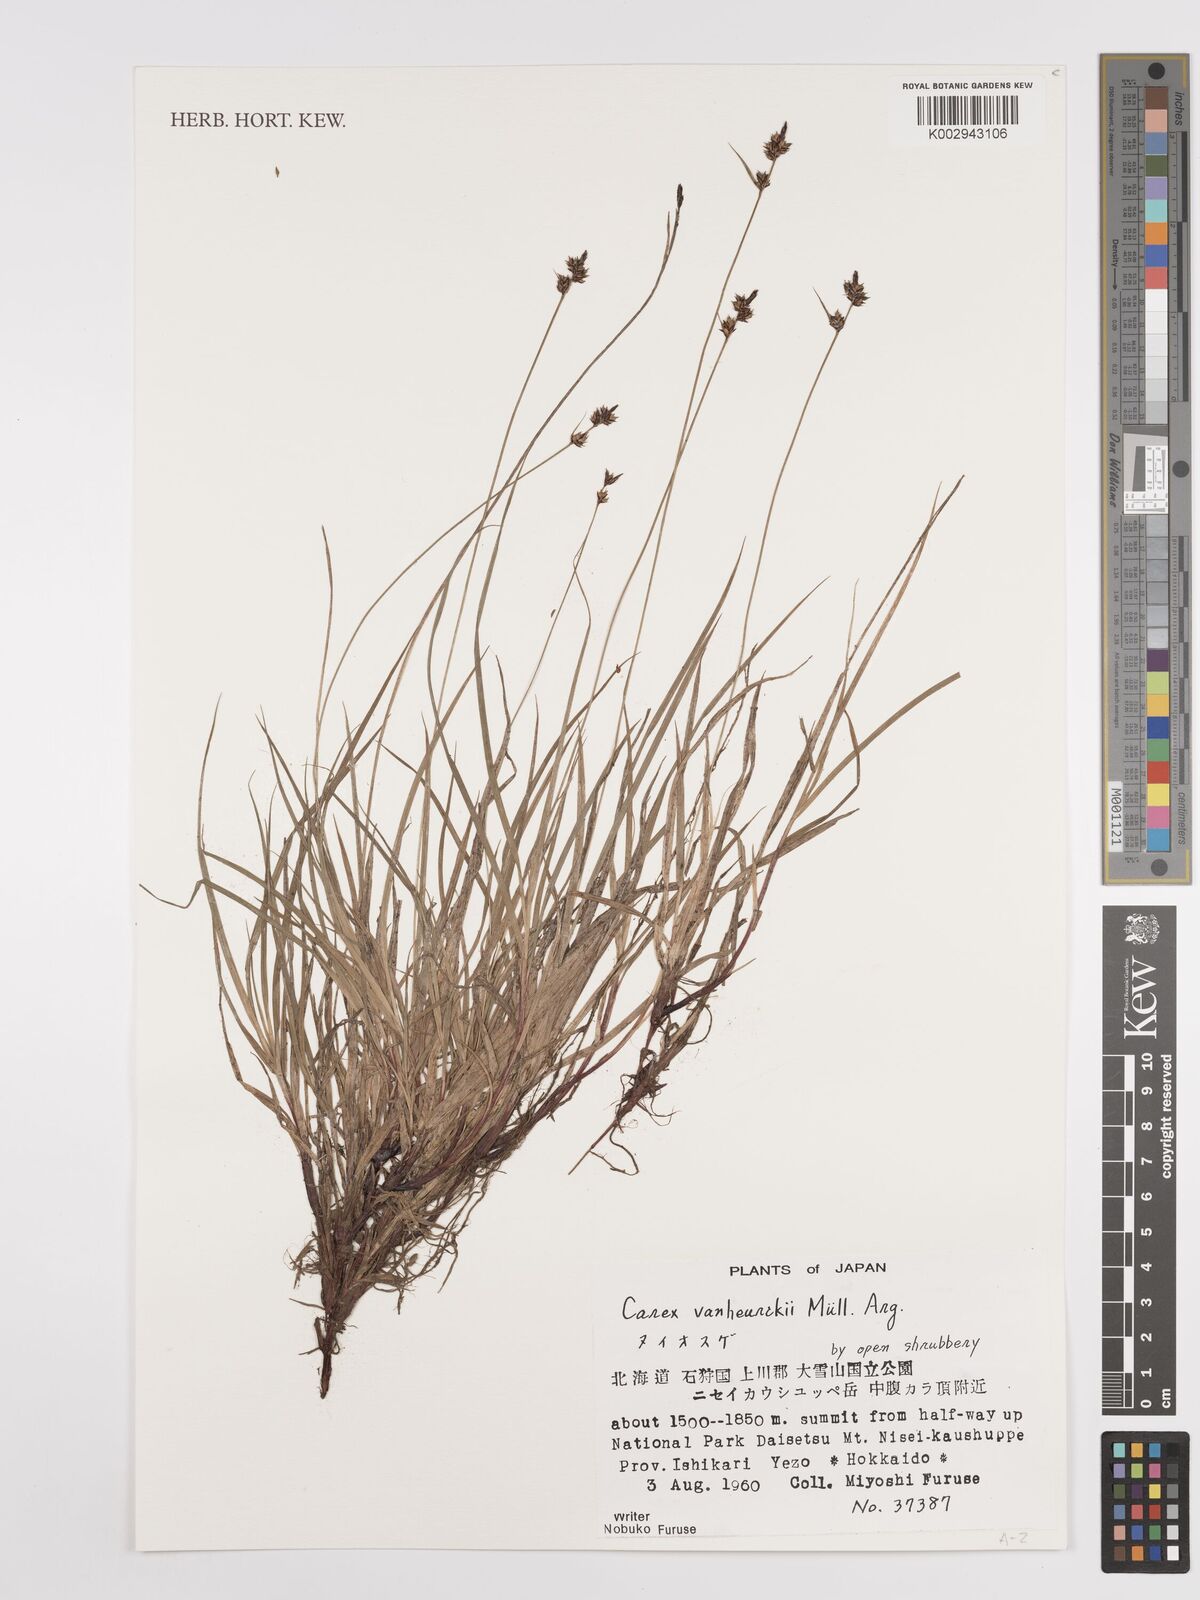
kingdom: Plantae
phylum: Tracheophyta
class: Liliopsida
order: Poales
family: Cyperaceae
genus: Carex
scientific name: Carex vanheurckii
